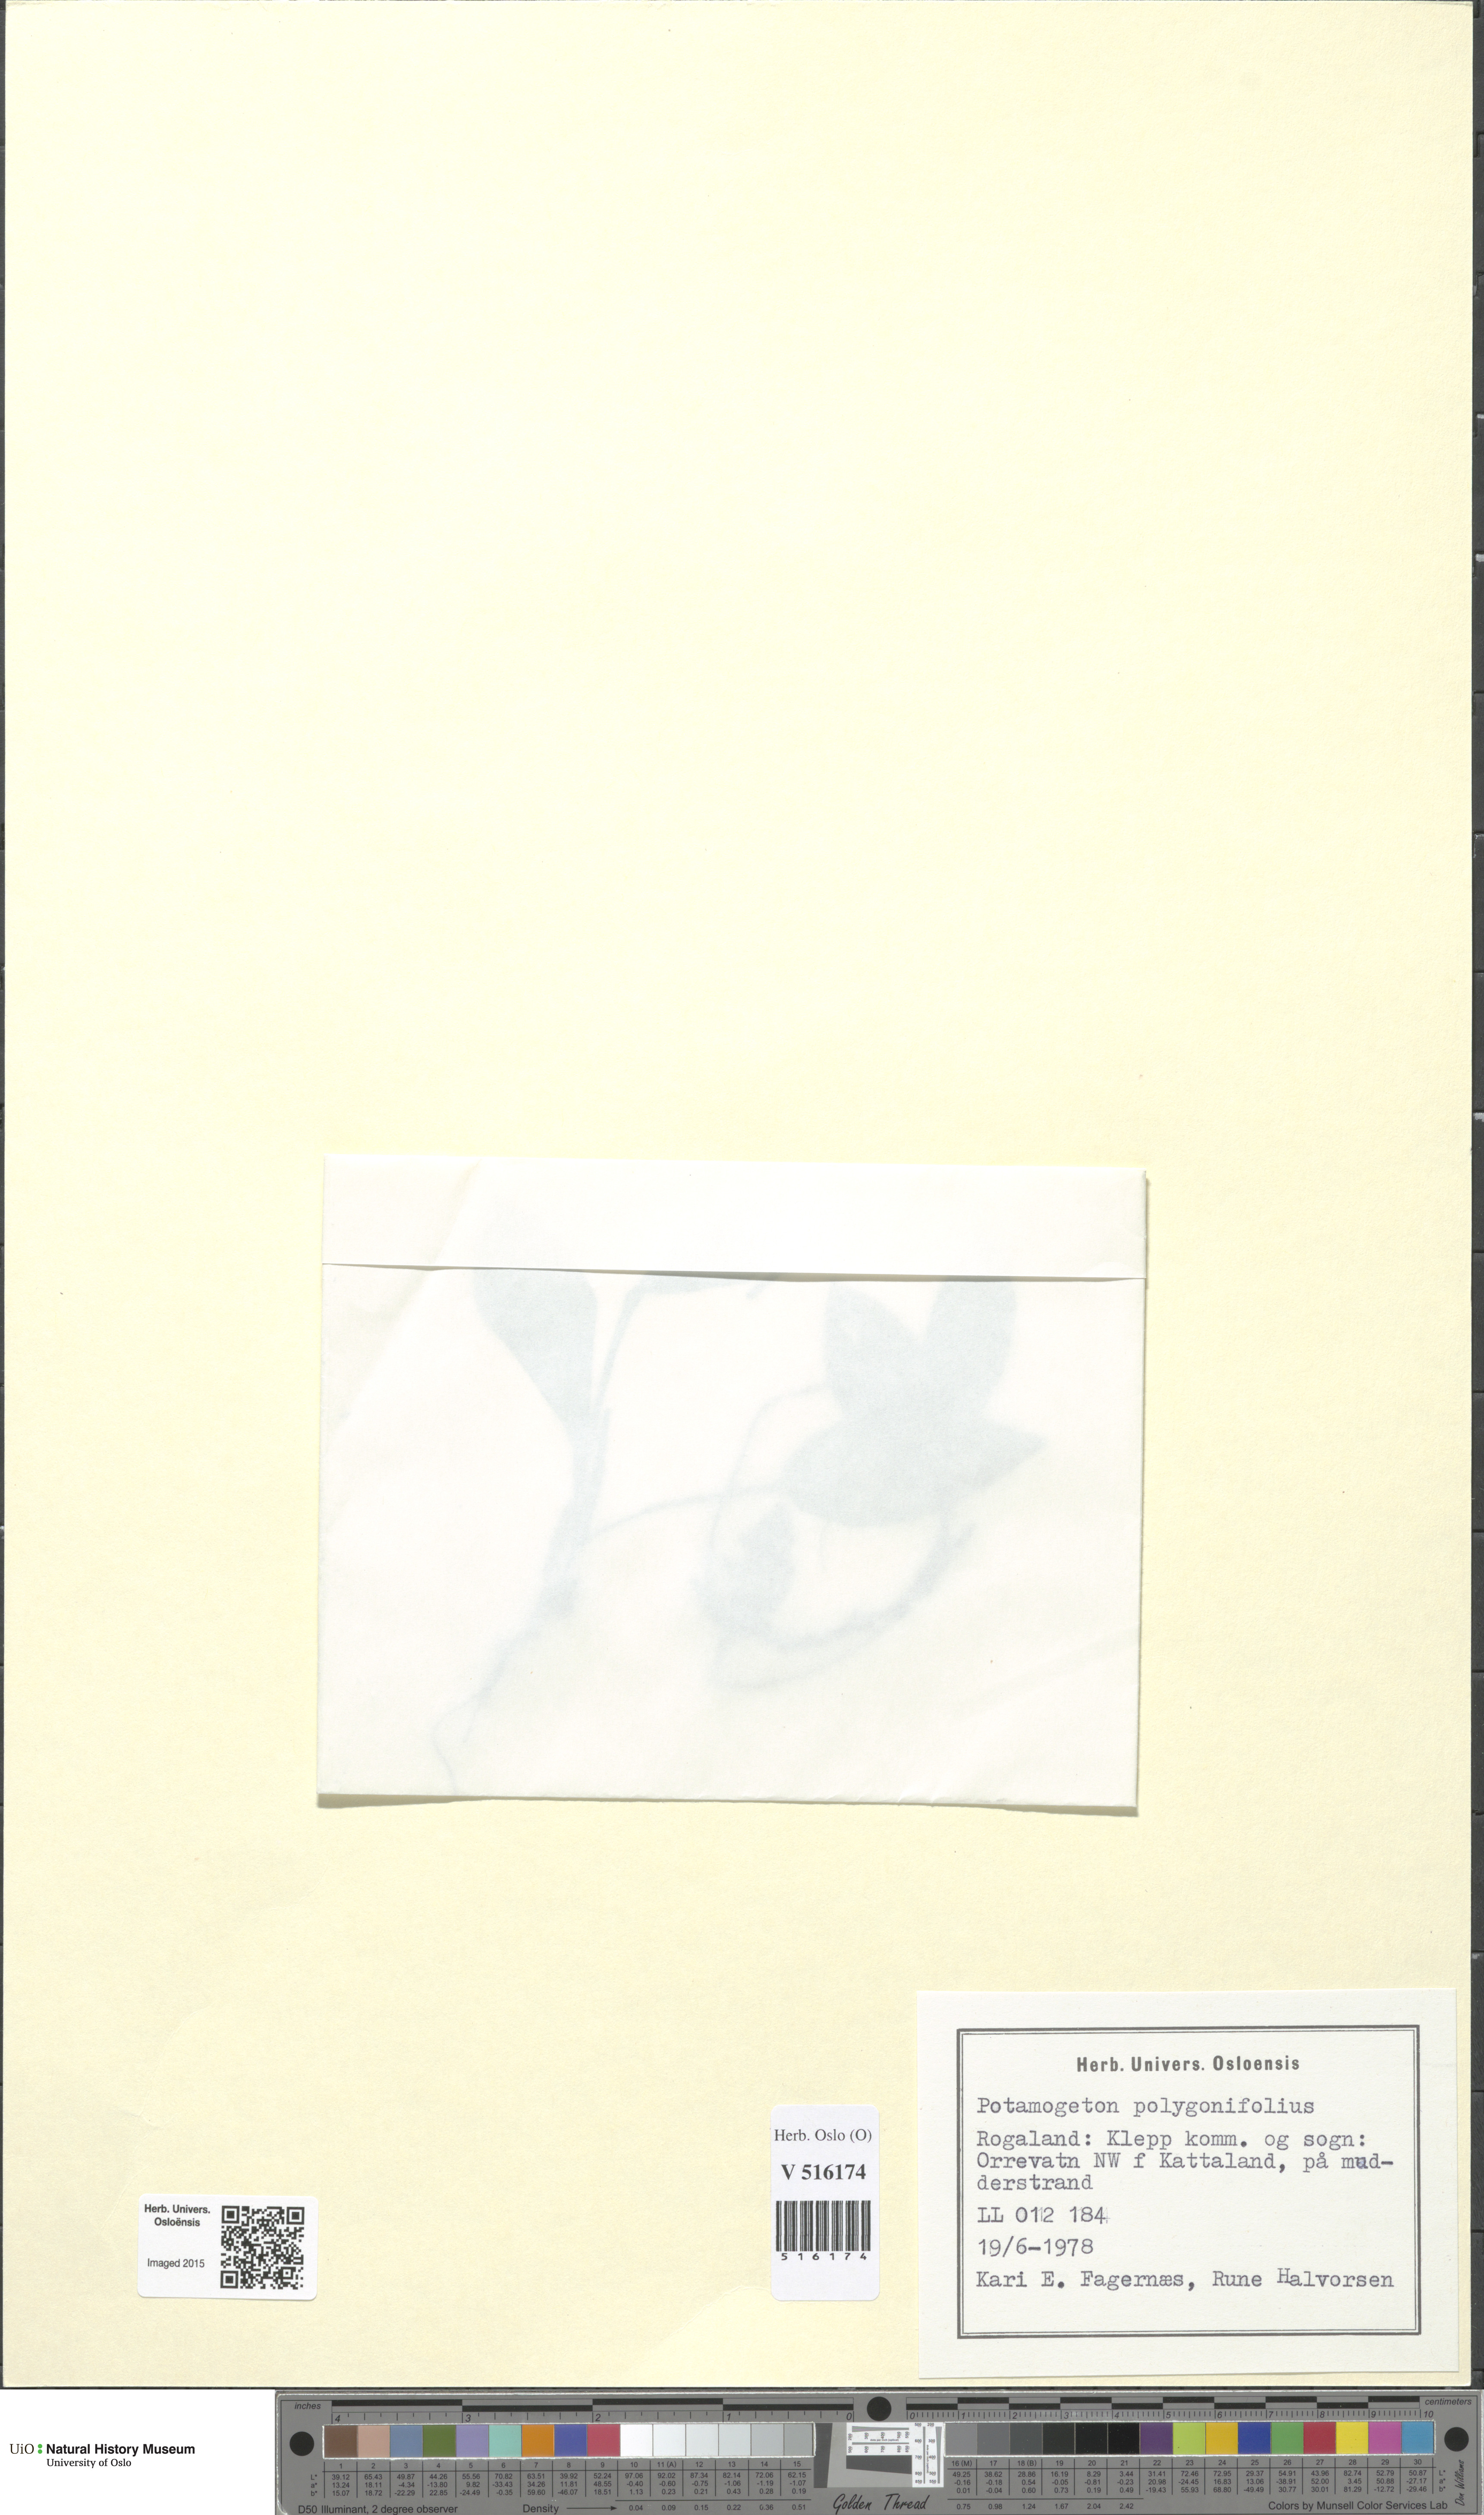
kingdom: Plantae
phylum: Tracheophyta
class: Liliopsida
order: Alismatales
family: Potamogetonaceae
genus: Potamogeton
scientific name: Potamogeton polygonifolius
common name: Bog pondweed
